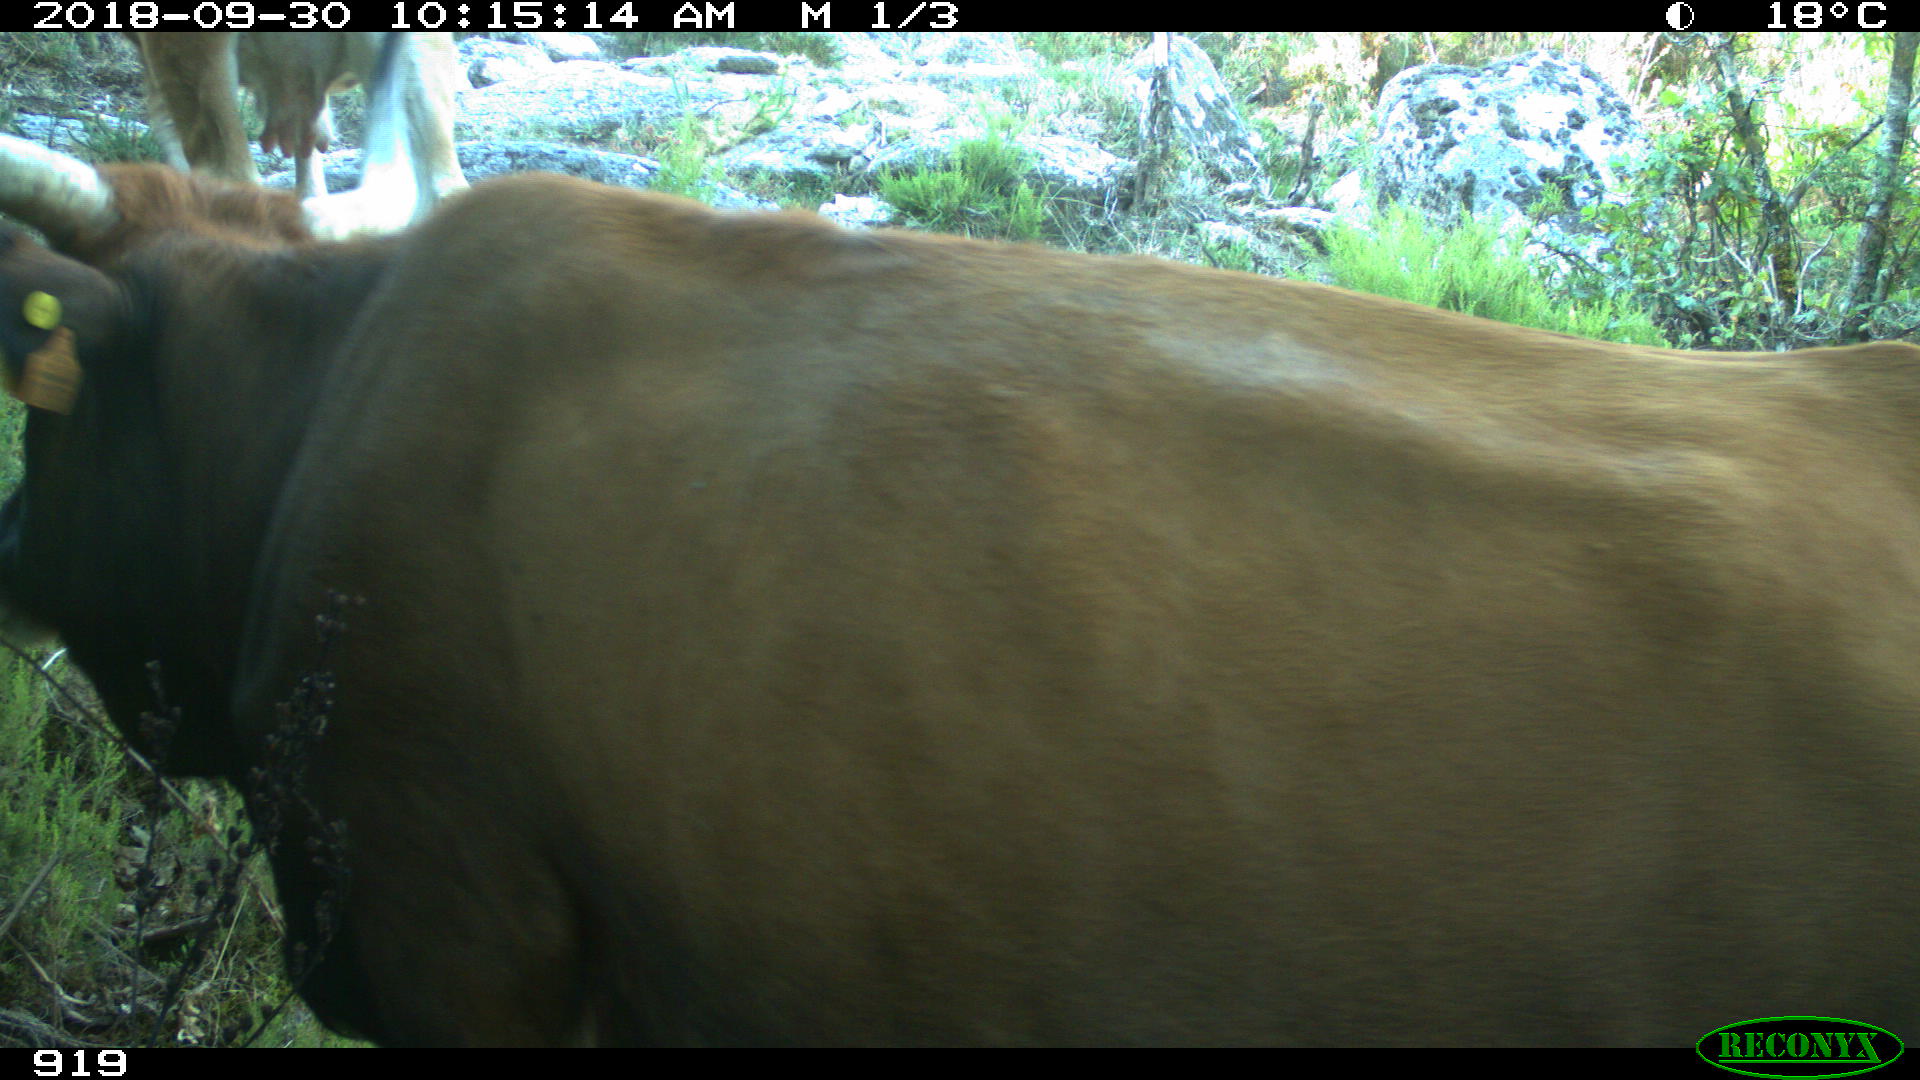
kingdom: Animalia
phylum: Chordata
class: Mammalia
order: Artiodactyla
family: Bovidae
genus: Bos
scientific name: Bos taurus
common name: Domesticated cattle
